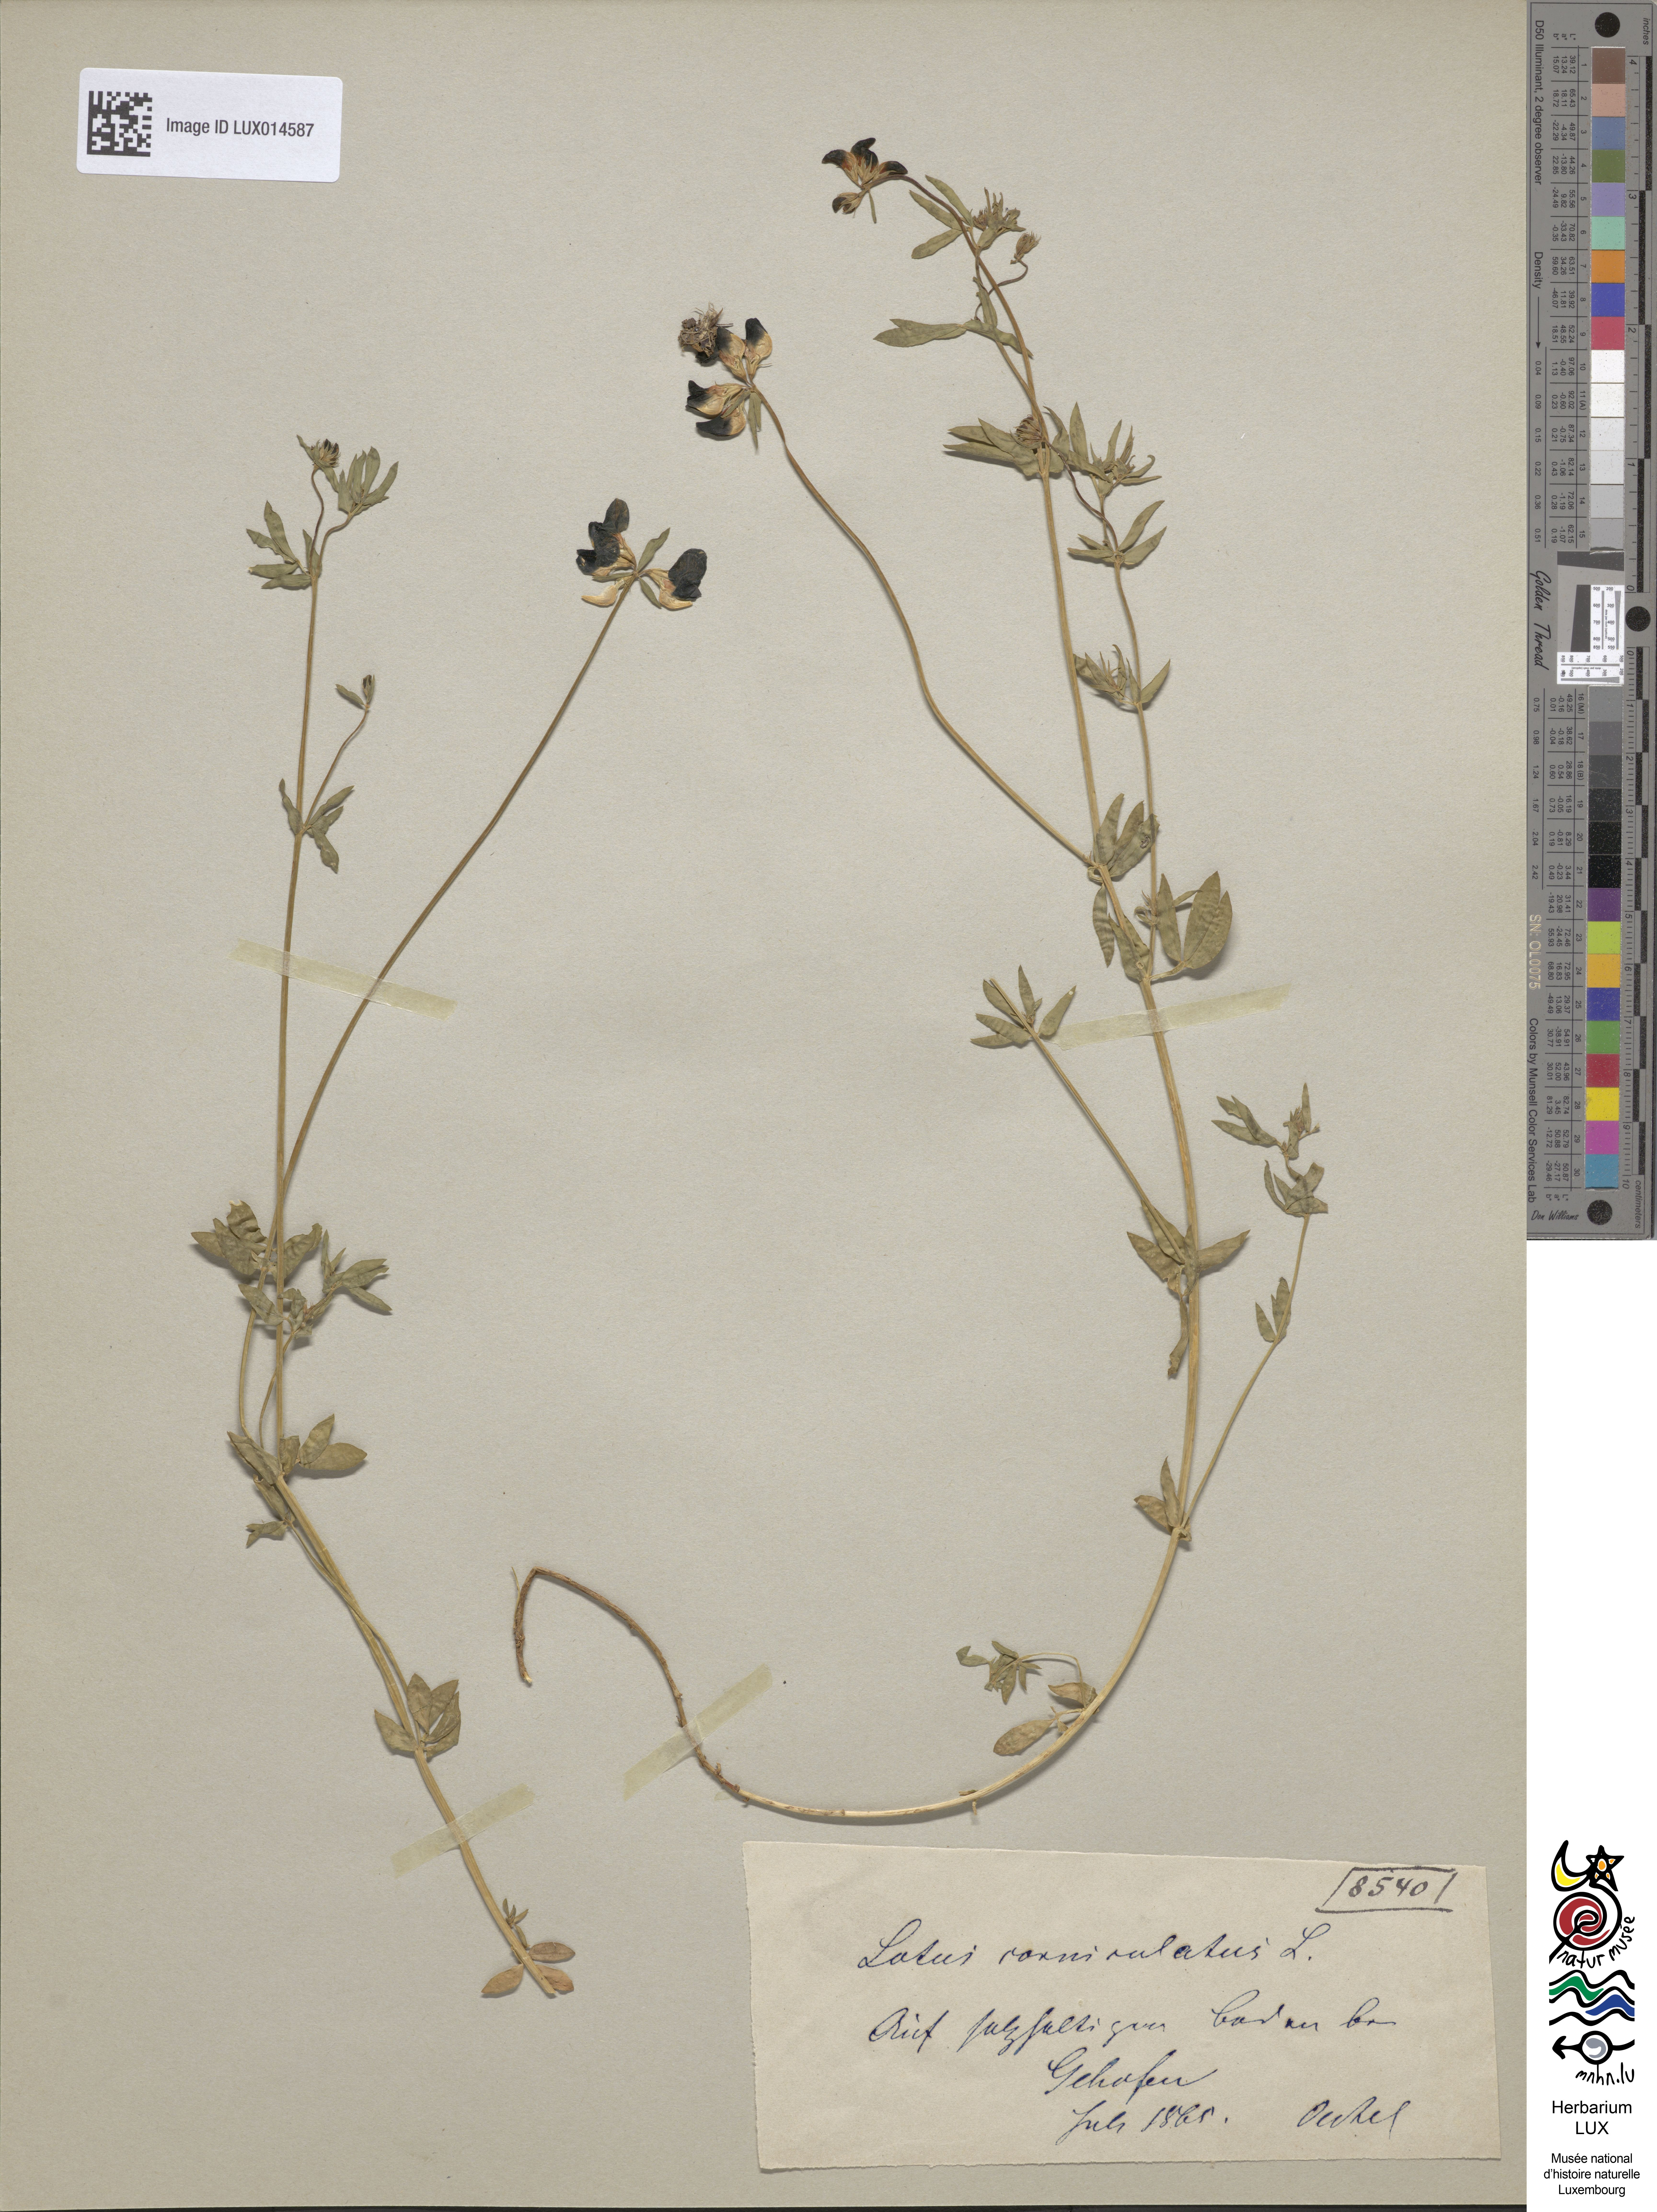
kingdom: Plantae
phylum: Tracheophyta
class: Magnoliopsida
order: Fabales
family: Fabaceae
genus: Lotus
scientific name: Lotus corniculatus
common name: Common bird's-foot-trefoil
